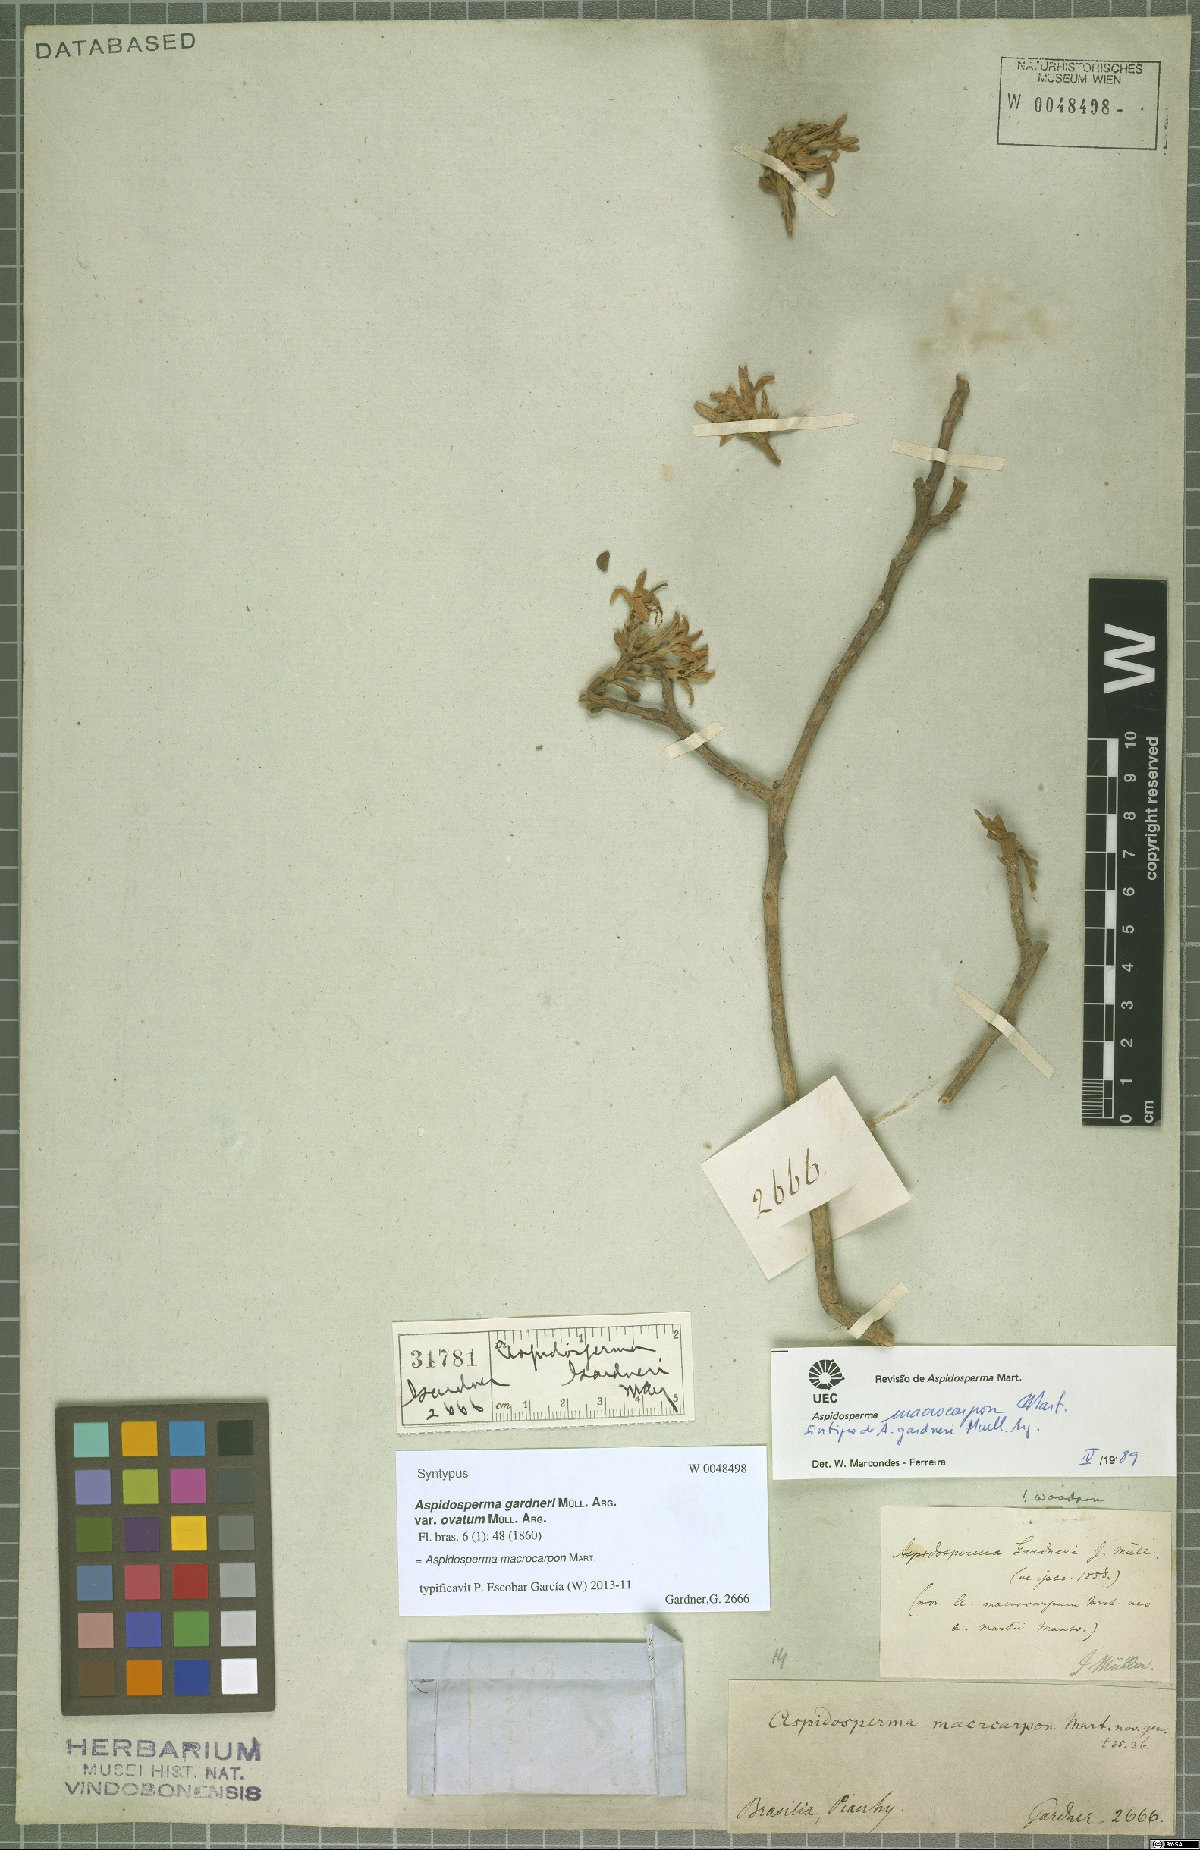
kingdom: Plantae
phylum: Tracheophyta
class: Magnoliopsida
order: Gentianales
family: Apocynaceae
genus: Aspidosperma
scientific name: Aspidosperma macrocarpon
